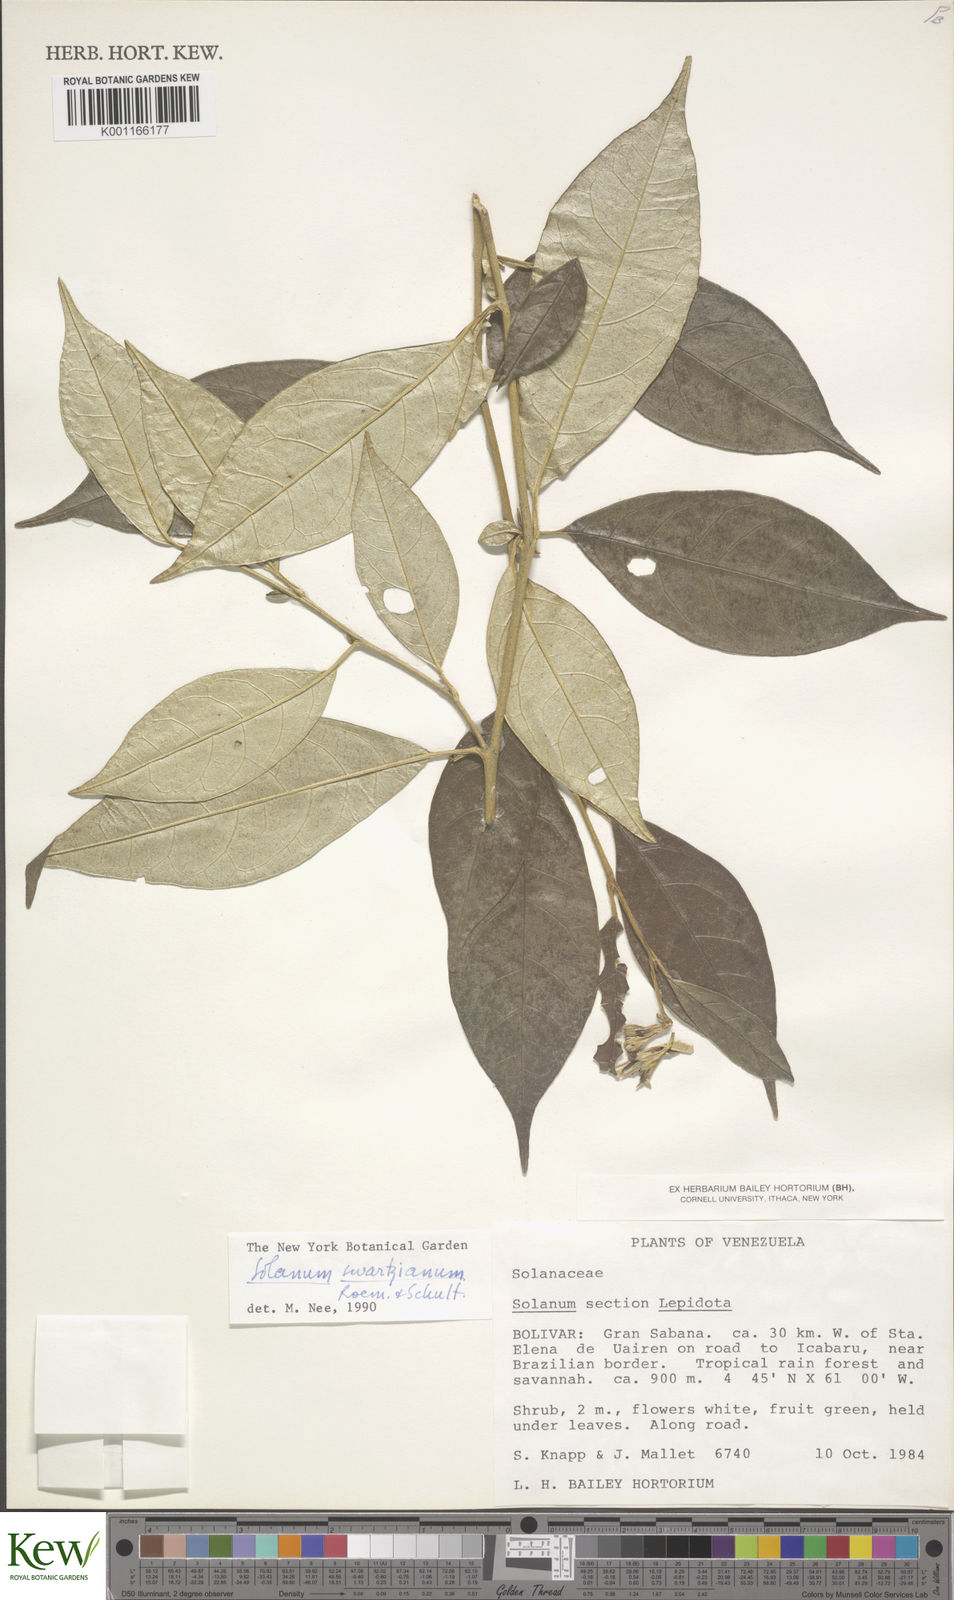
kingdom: Plantae
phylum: Tracheophyta
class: Magnoliopsida
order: Solanales
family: Solanaceae
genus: Solanum
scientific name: Solanum sycophanta
